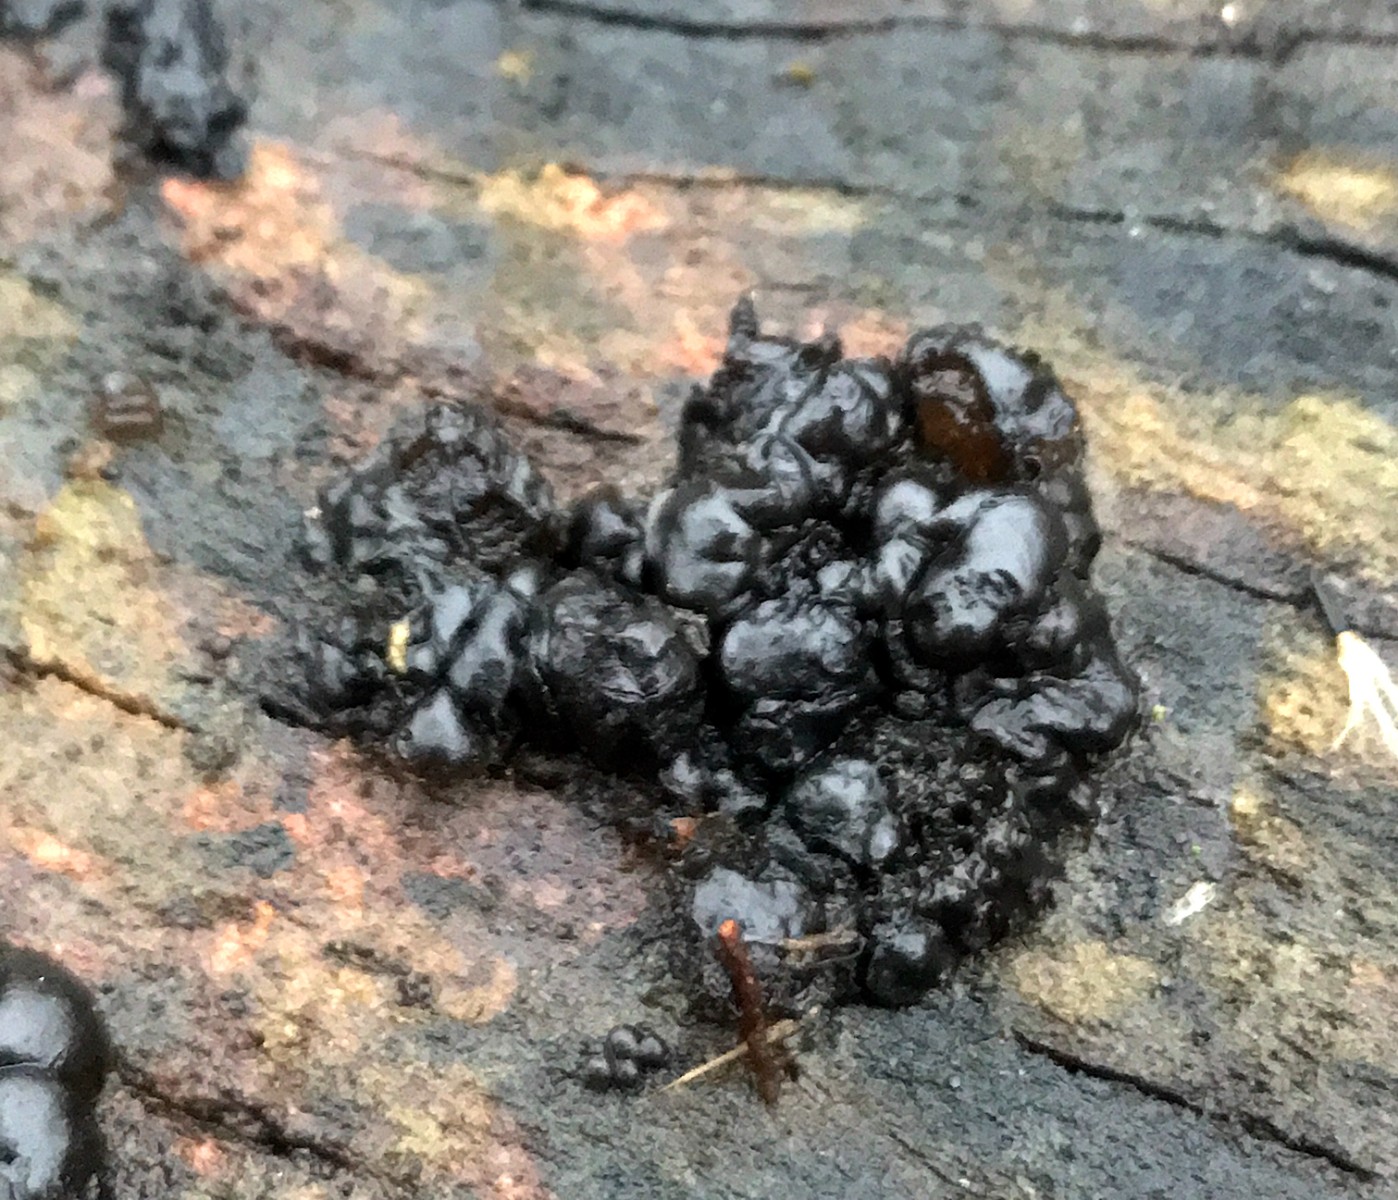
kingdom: Fungi
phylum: Basidiomycota
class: Agaricomycetes
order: Auriculariales
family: Auriculariaceae
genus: Exidia
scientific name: Exidia nigricans
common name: almindelig bævretop
